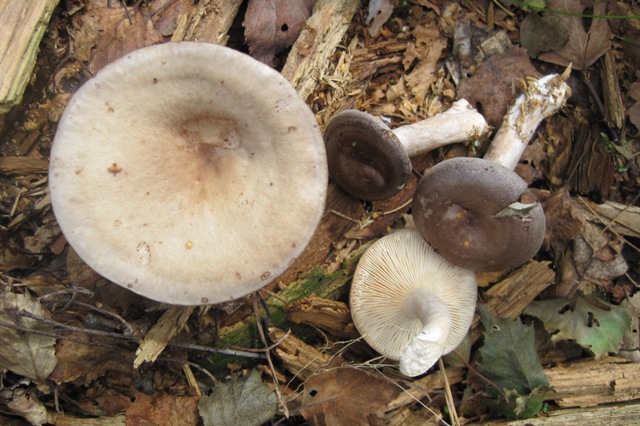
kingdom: Fungi
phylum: Basidiomycota
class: Agaricomycetes
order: Russulales
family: Russulaceae
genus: Lactarius
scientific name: Lactarius vietus
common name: violetgrå mælkehat
